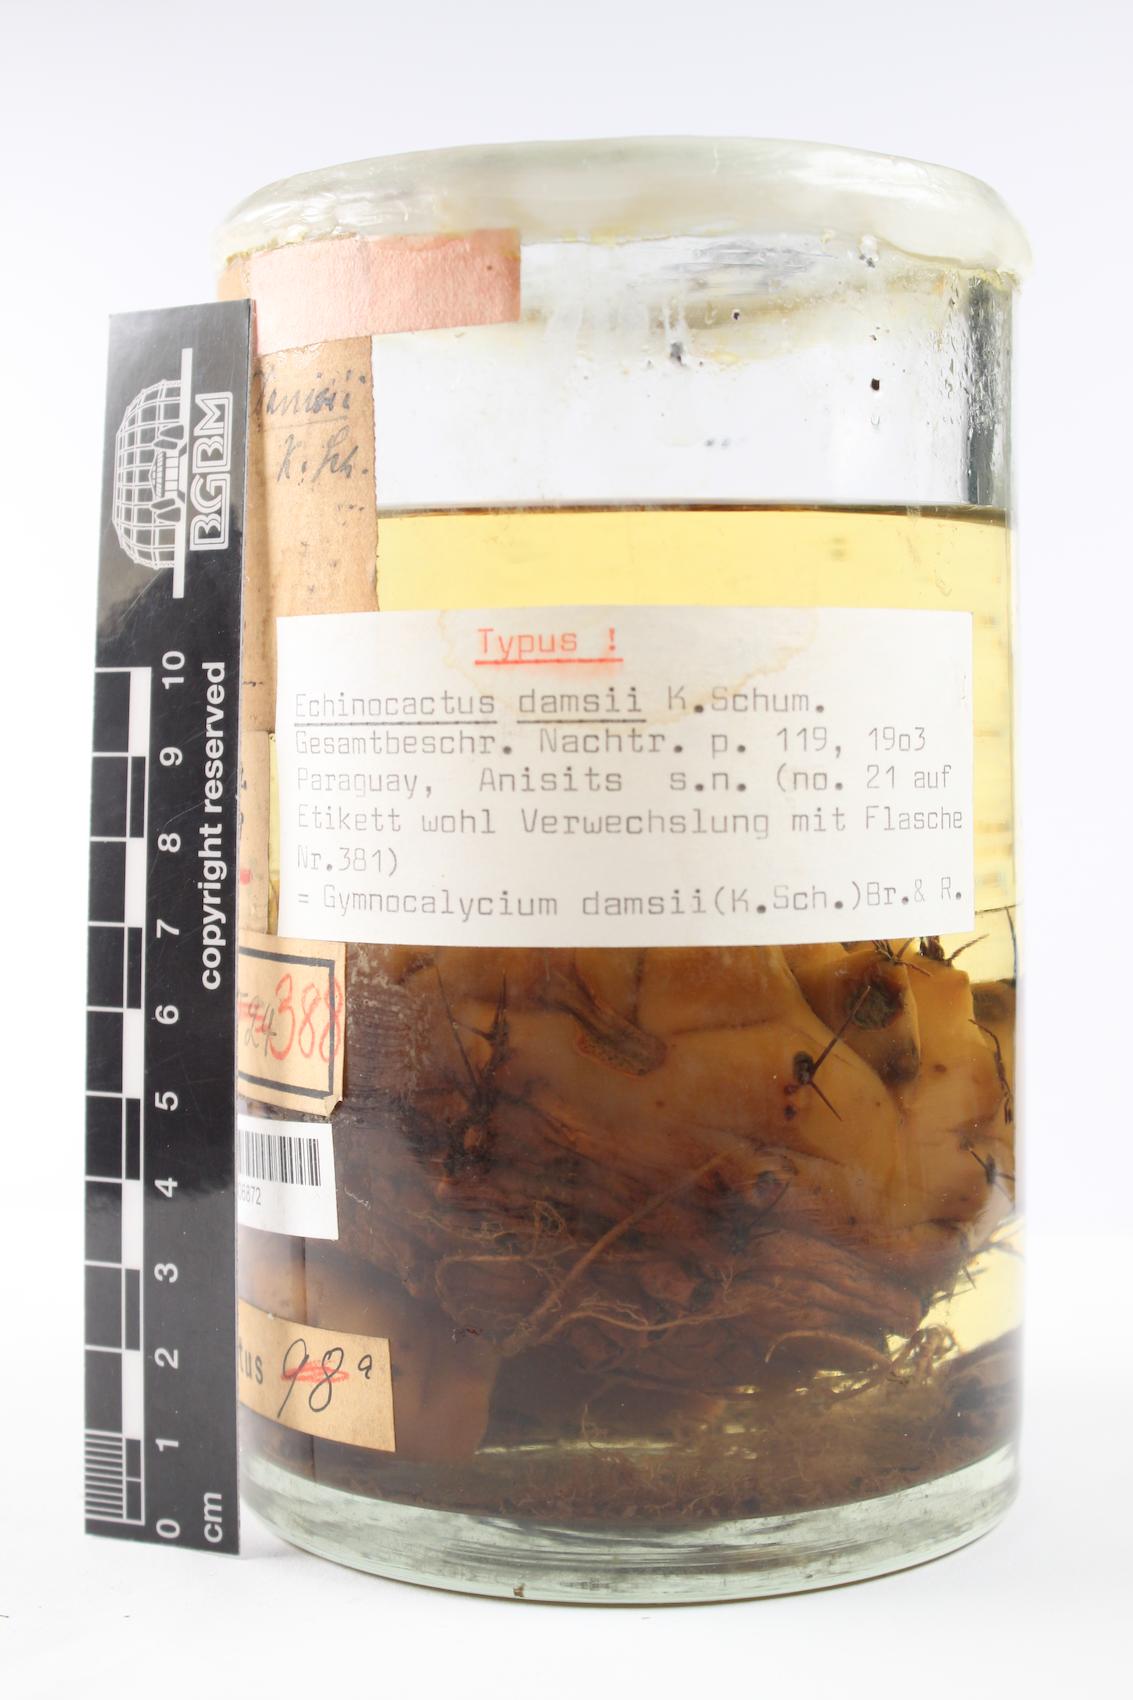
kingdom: Plantae
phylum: Tracheophyta
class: Magnoliopsida
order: Caryophyllales
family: Cactaceae
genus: Gymnocalycium
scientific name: Gymnocalycium anisitsii
